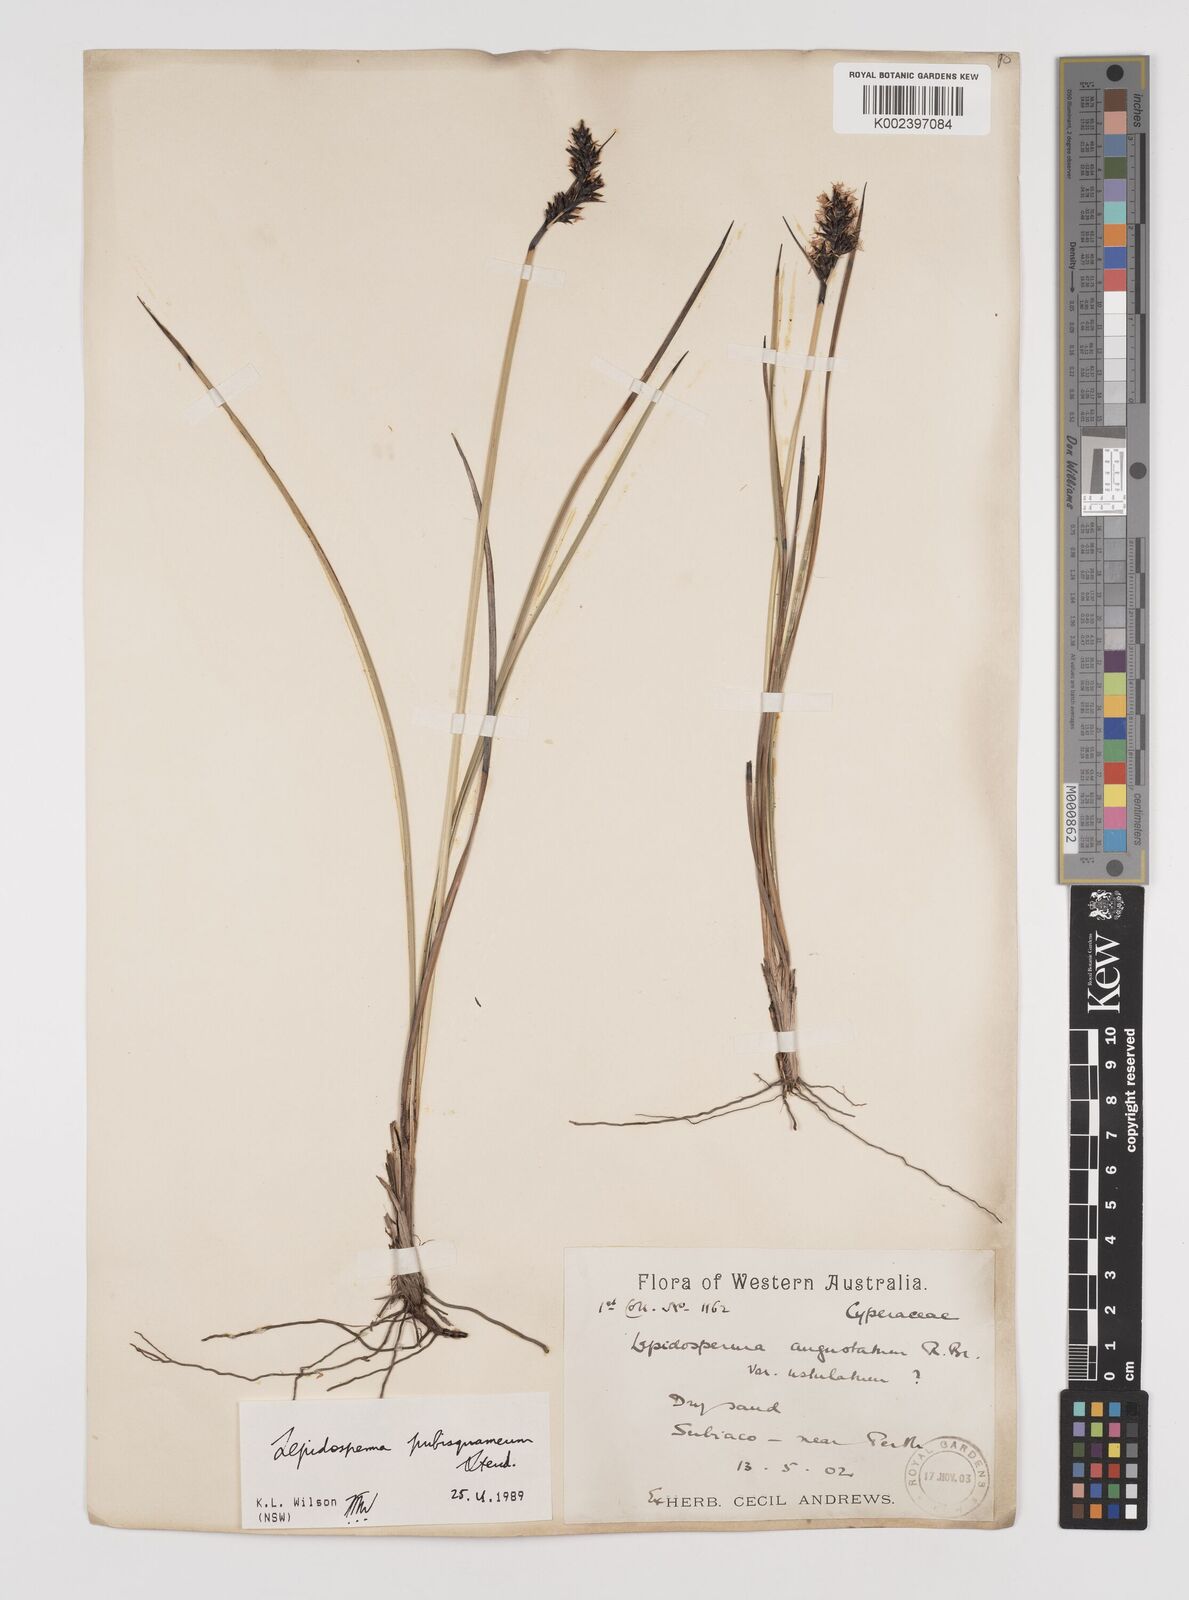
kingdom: Plantae
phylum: Tracheophyta
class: Liliopsida
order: Poales
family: Cyperaceae
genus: Lepidosperma
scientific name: Lepidosperma pubisquameum
